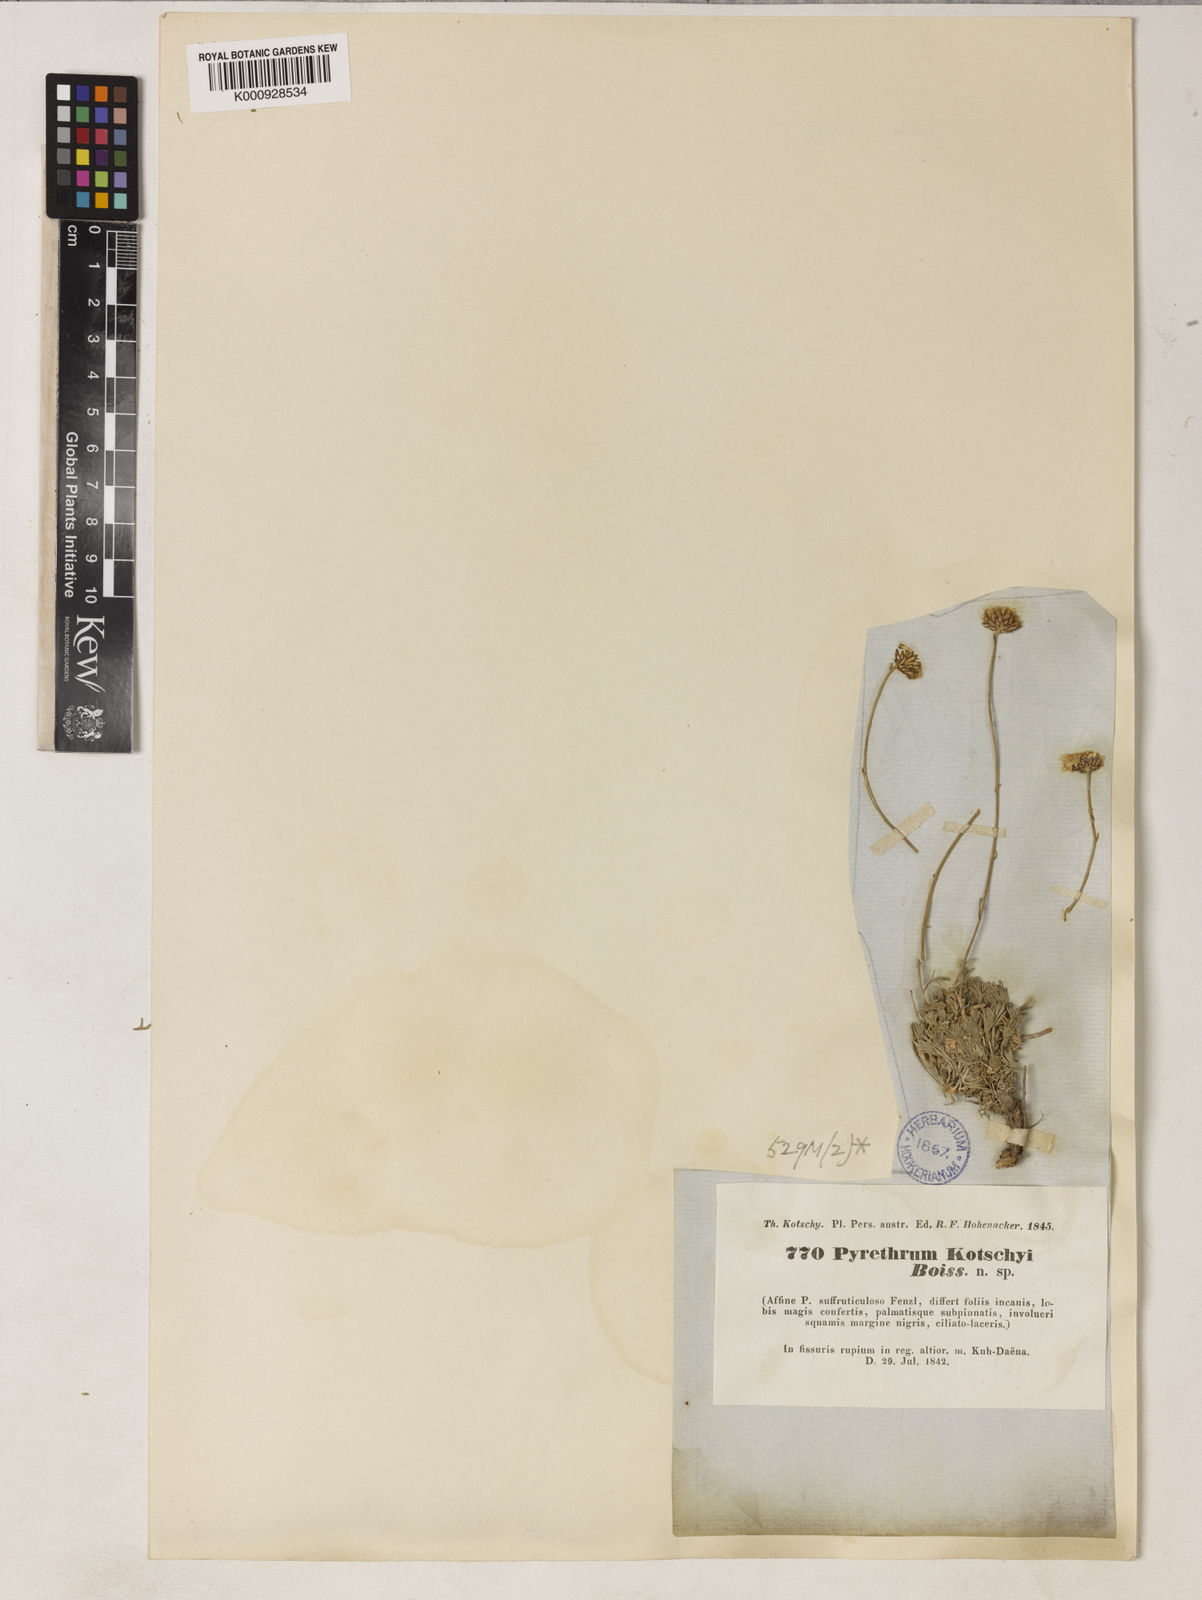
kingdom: Plantae
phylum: Tracheophyta
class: Magnoliopsida
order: Asterales
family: Asteraceae
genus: Tanacetum
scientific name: Tanacetum kotschyi
